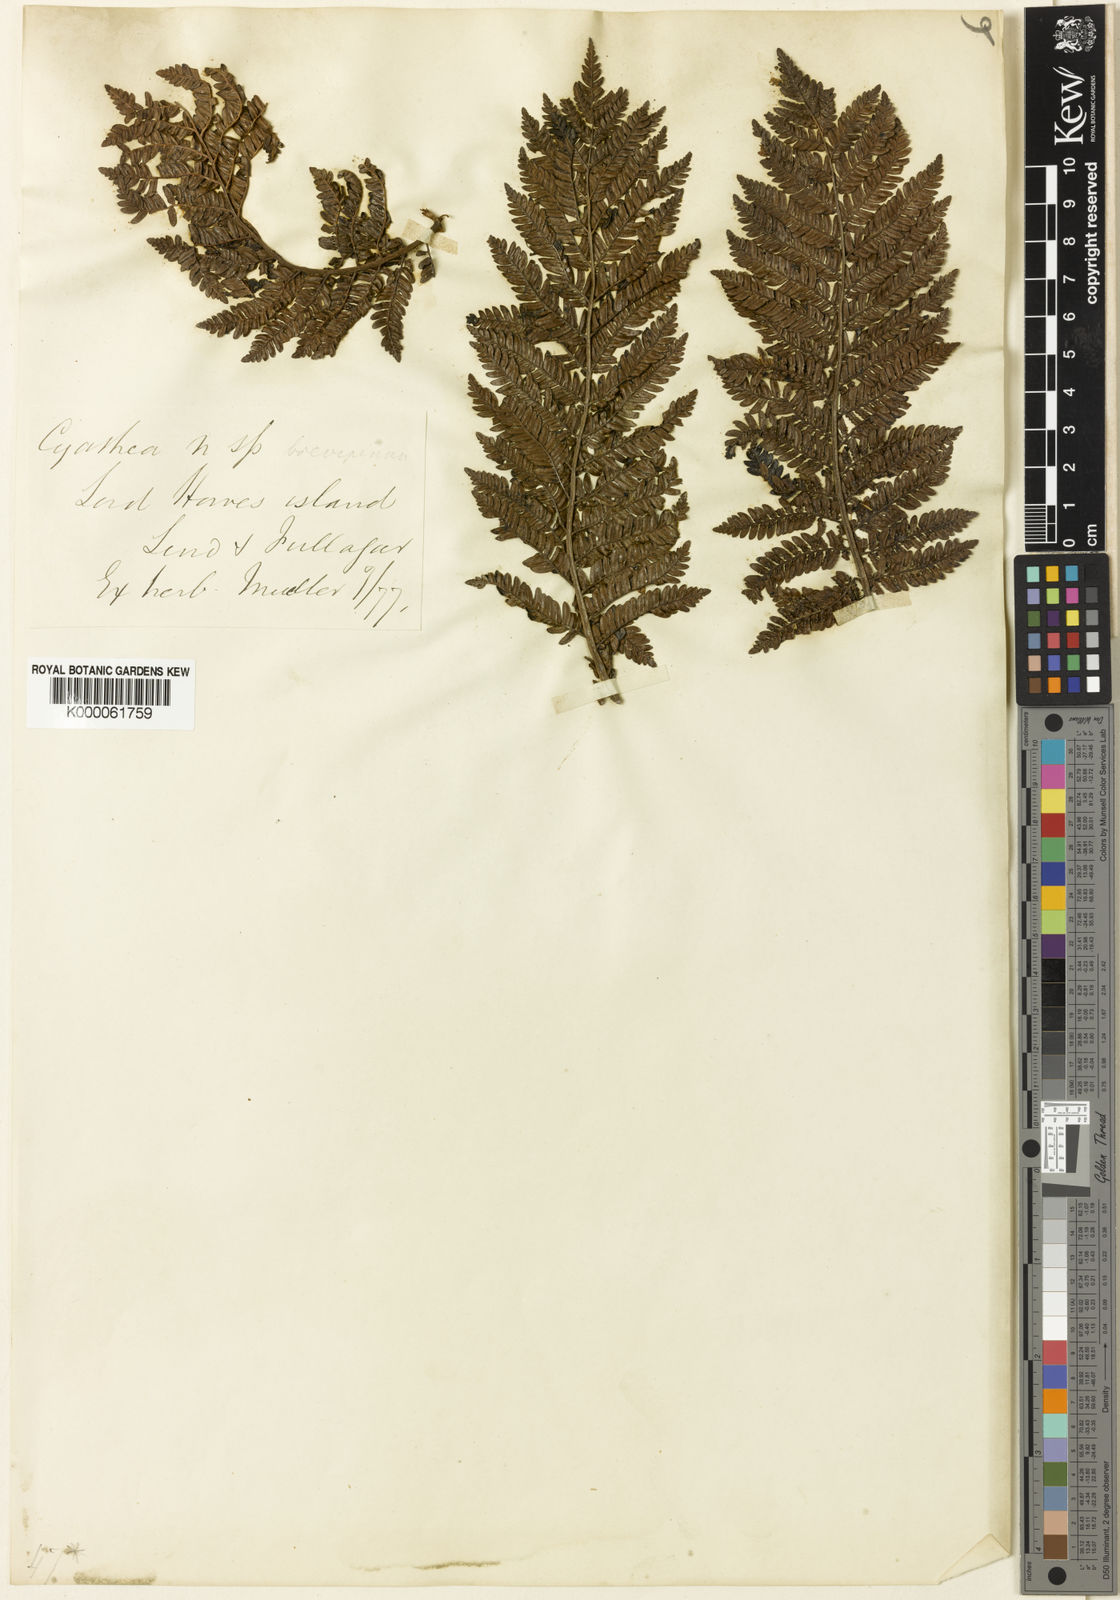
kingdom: Plantae
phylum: Tracheophyta
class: Polypodiopsida
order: Cyatheales
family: Cyatheaceae
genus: Alsophila
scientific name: Alsophila brevipinna
